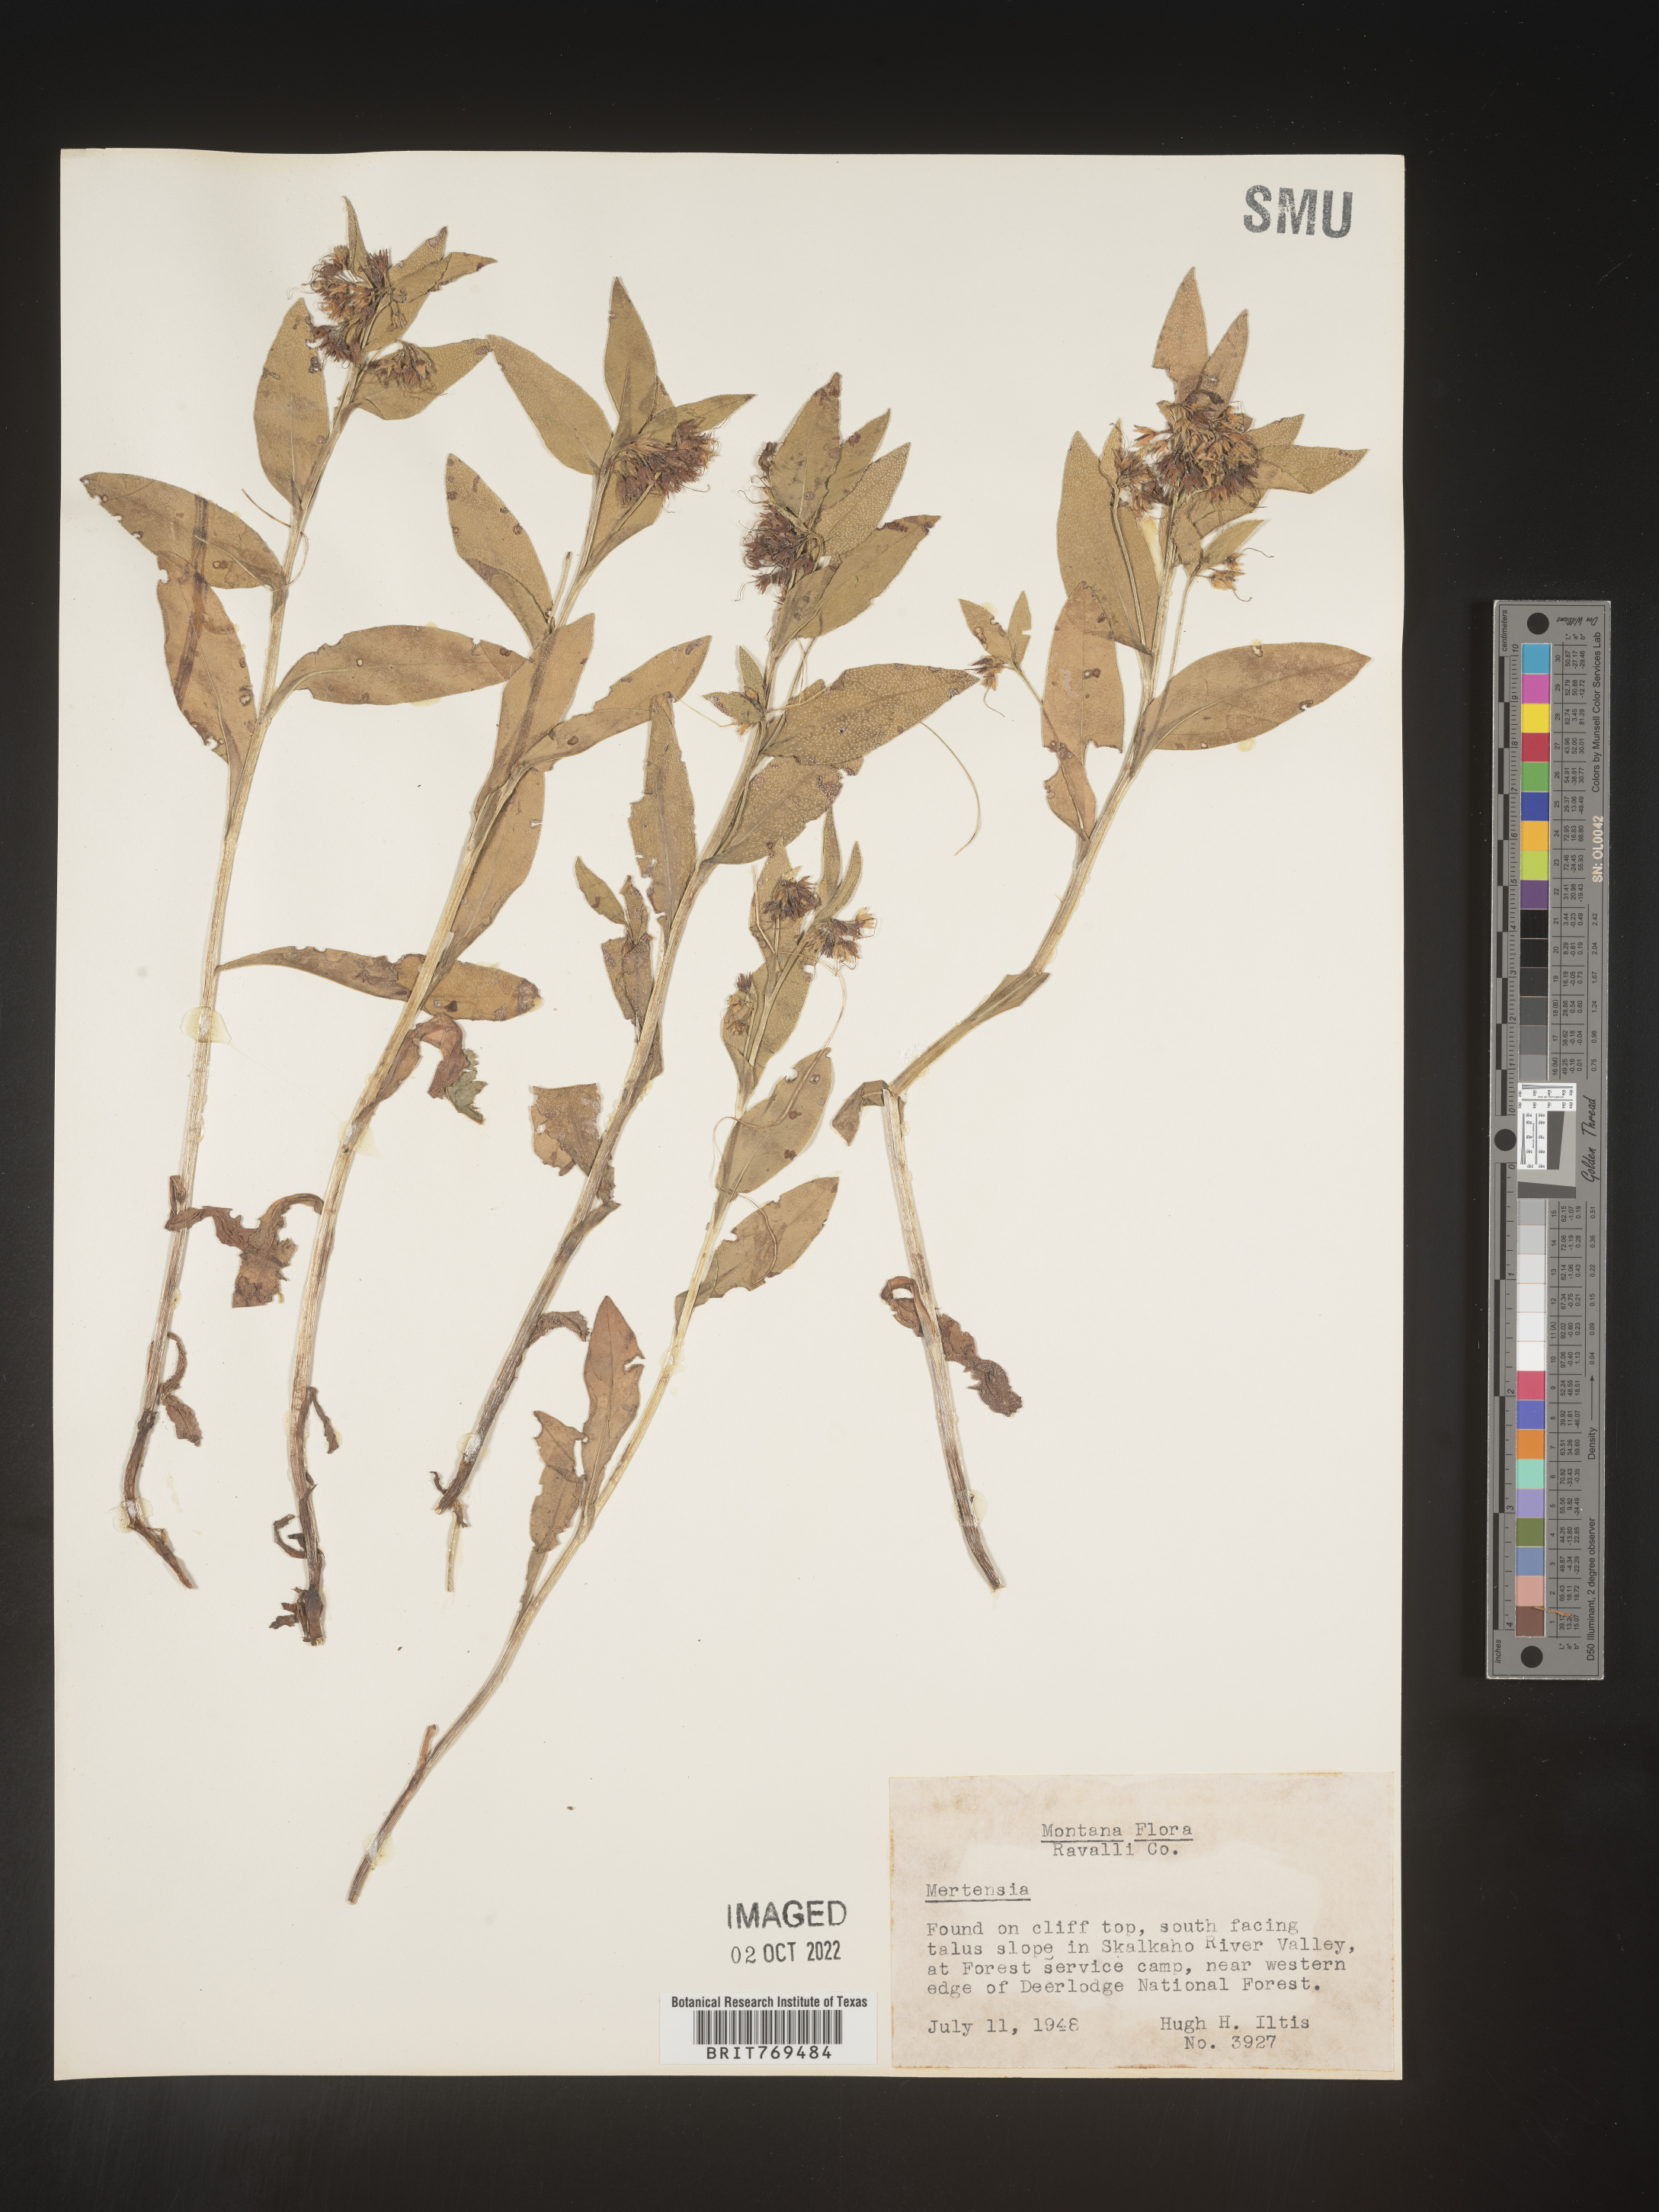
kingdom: Plantae
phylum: Tracheophyta
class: Magnoliopsida
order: Boraginales
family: Boraginaceae
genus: Mertensia
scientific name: Mertensia viridis
